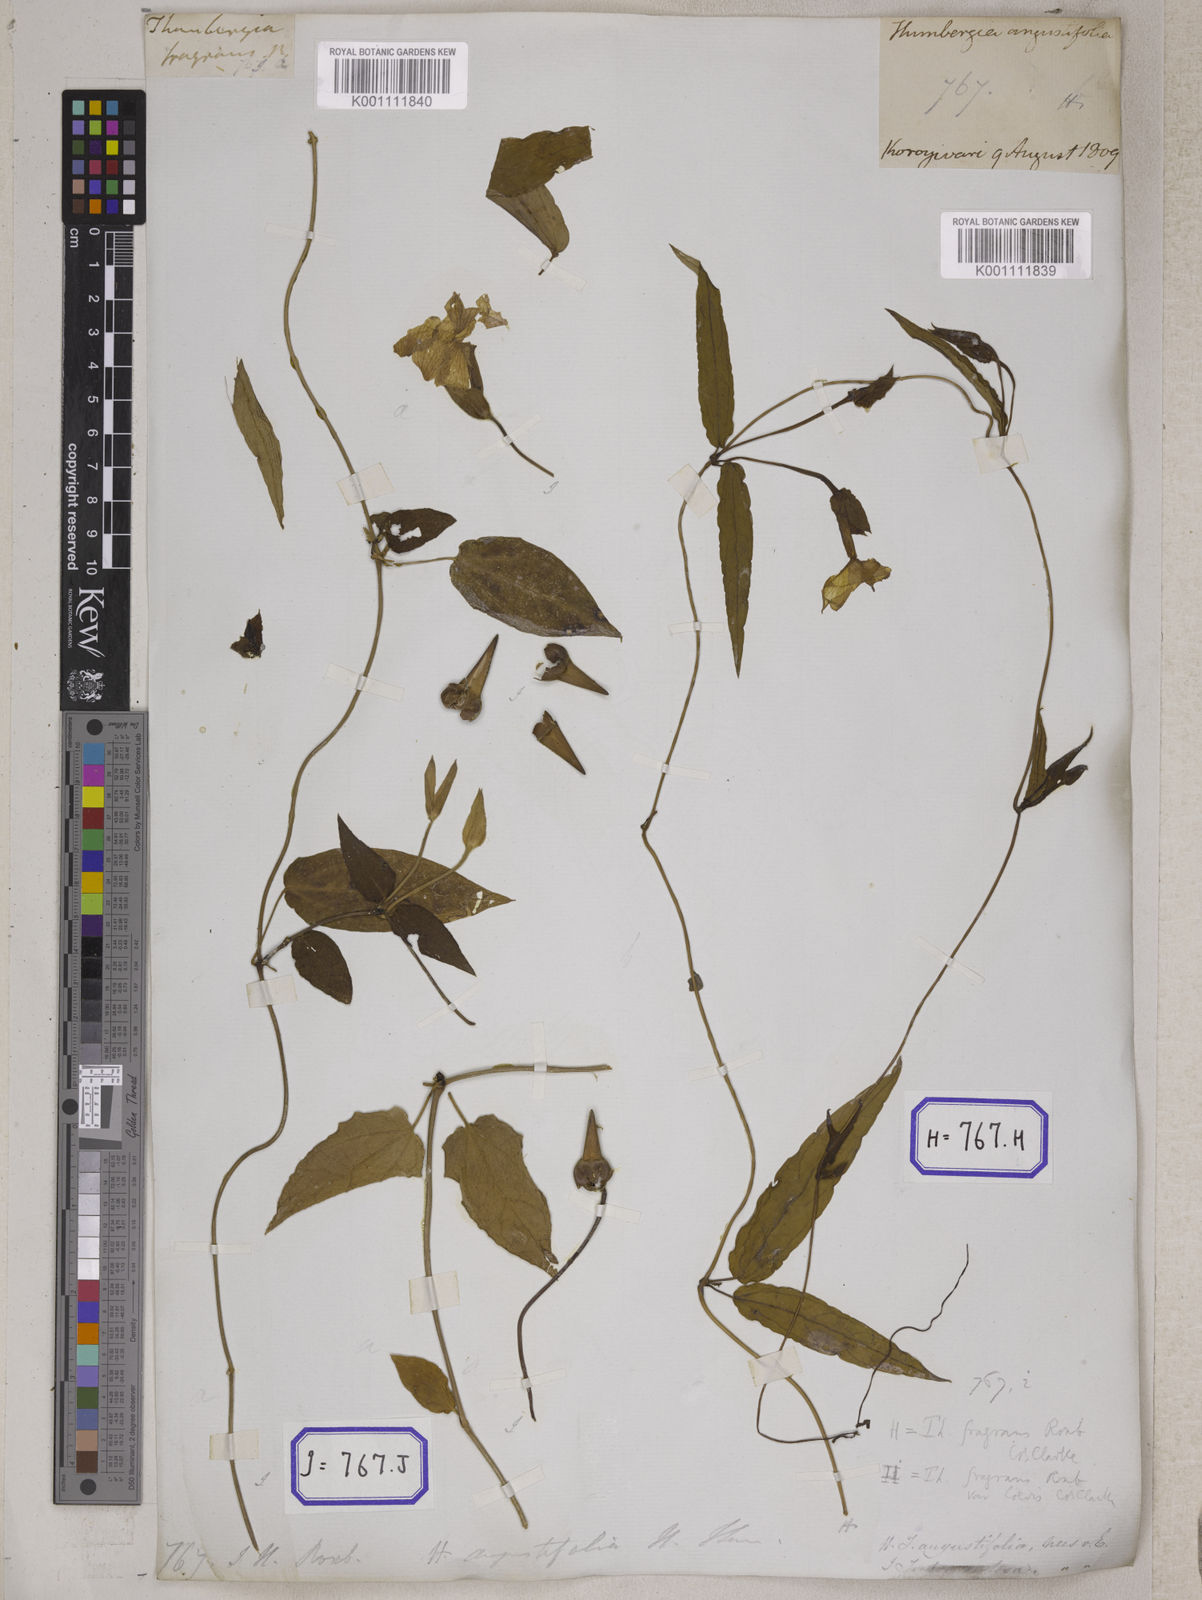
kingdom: Plantae
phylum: Tracheophyta
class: Magnoliopsida
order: Lamiales
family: Acanthaceae
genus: Thunbergia
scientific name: Thunbergia fragrans
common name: Whitelady
